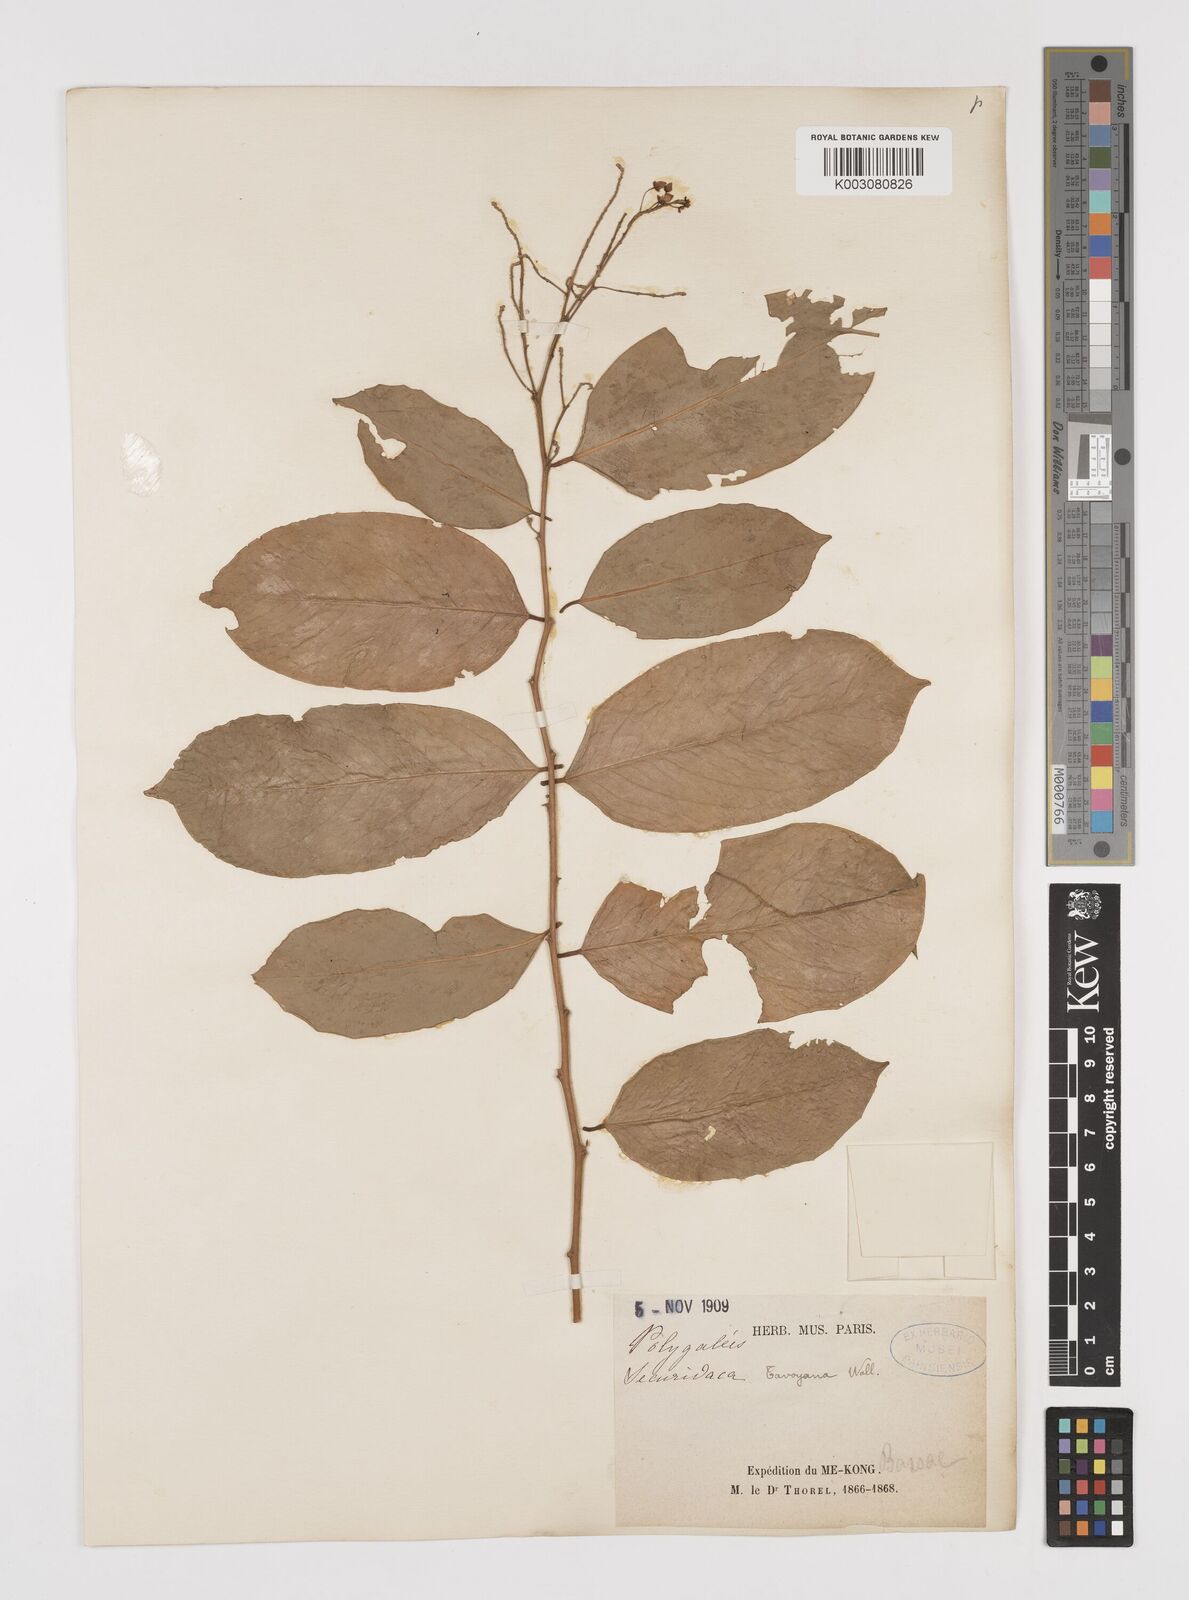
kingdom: Plantae
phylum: Tracheophyta
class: Magnoliopsida
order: Fabales
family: Polygalaceae
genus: Securidaca
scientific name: Securidaca inappendiculata
